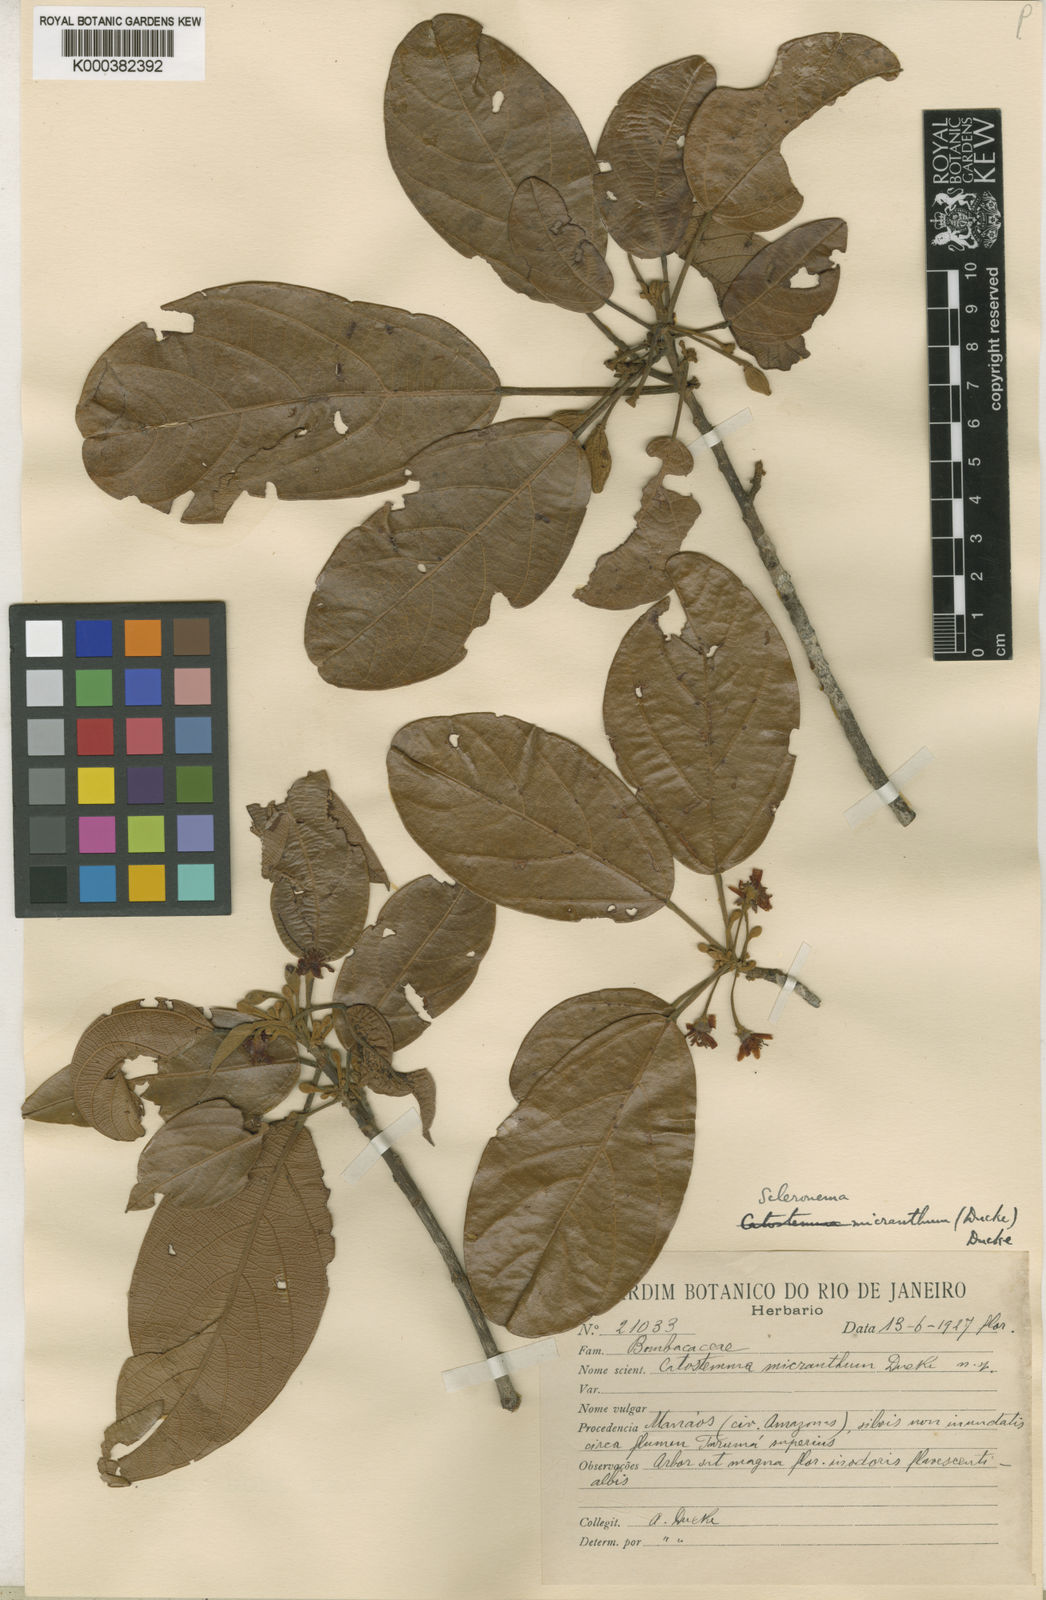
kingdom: Plantae
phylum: Tracheophyta
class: Magnoliopsida
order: Malvales
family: Malvaceae
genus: Scleronema
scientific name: Scleronema micranthum
